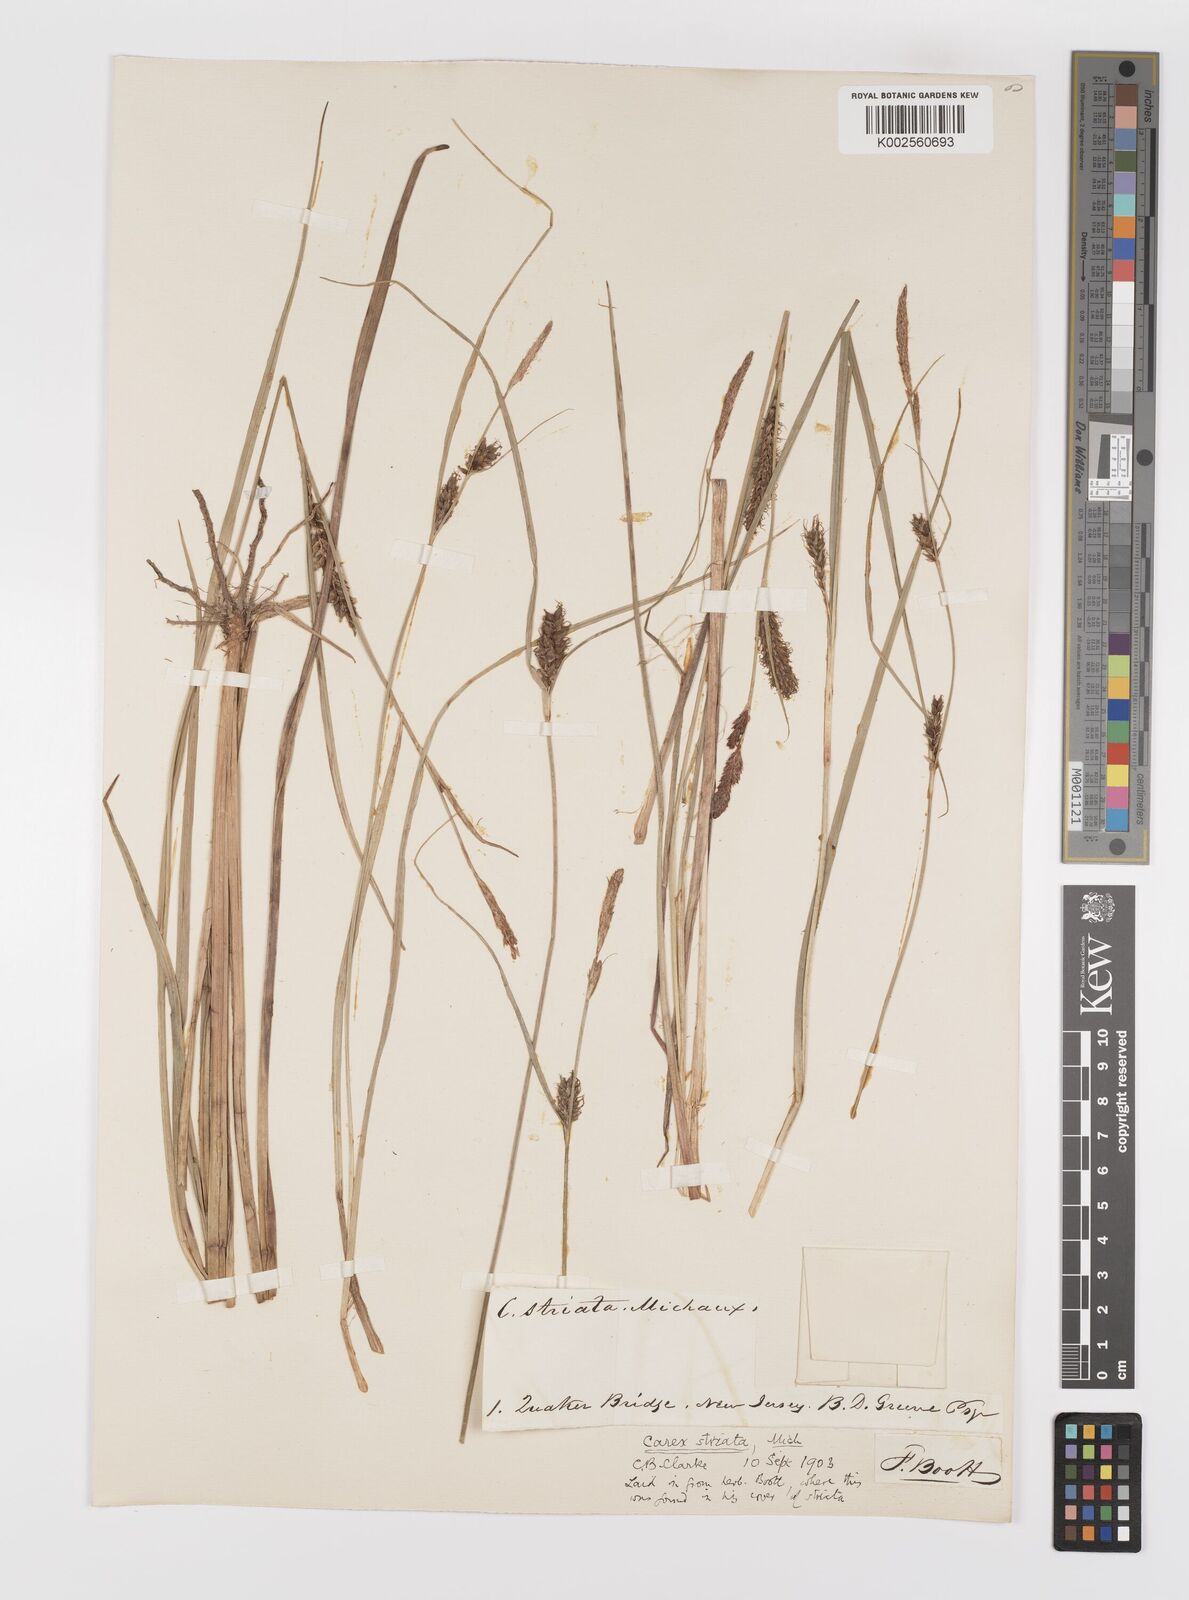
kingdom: Plantae
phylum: Tracheophyta
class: Liliopsida
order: Poales
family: Cyperaceae
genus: Carex
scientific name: Carex striata
